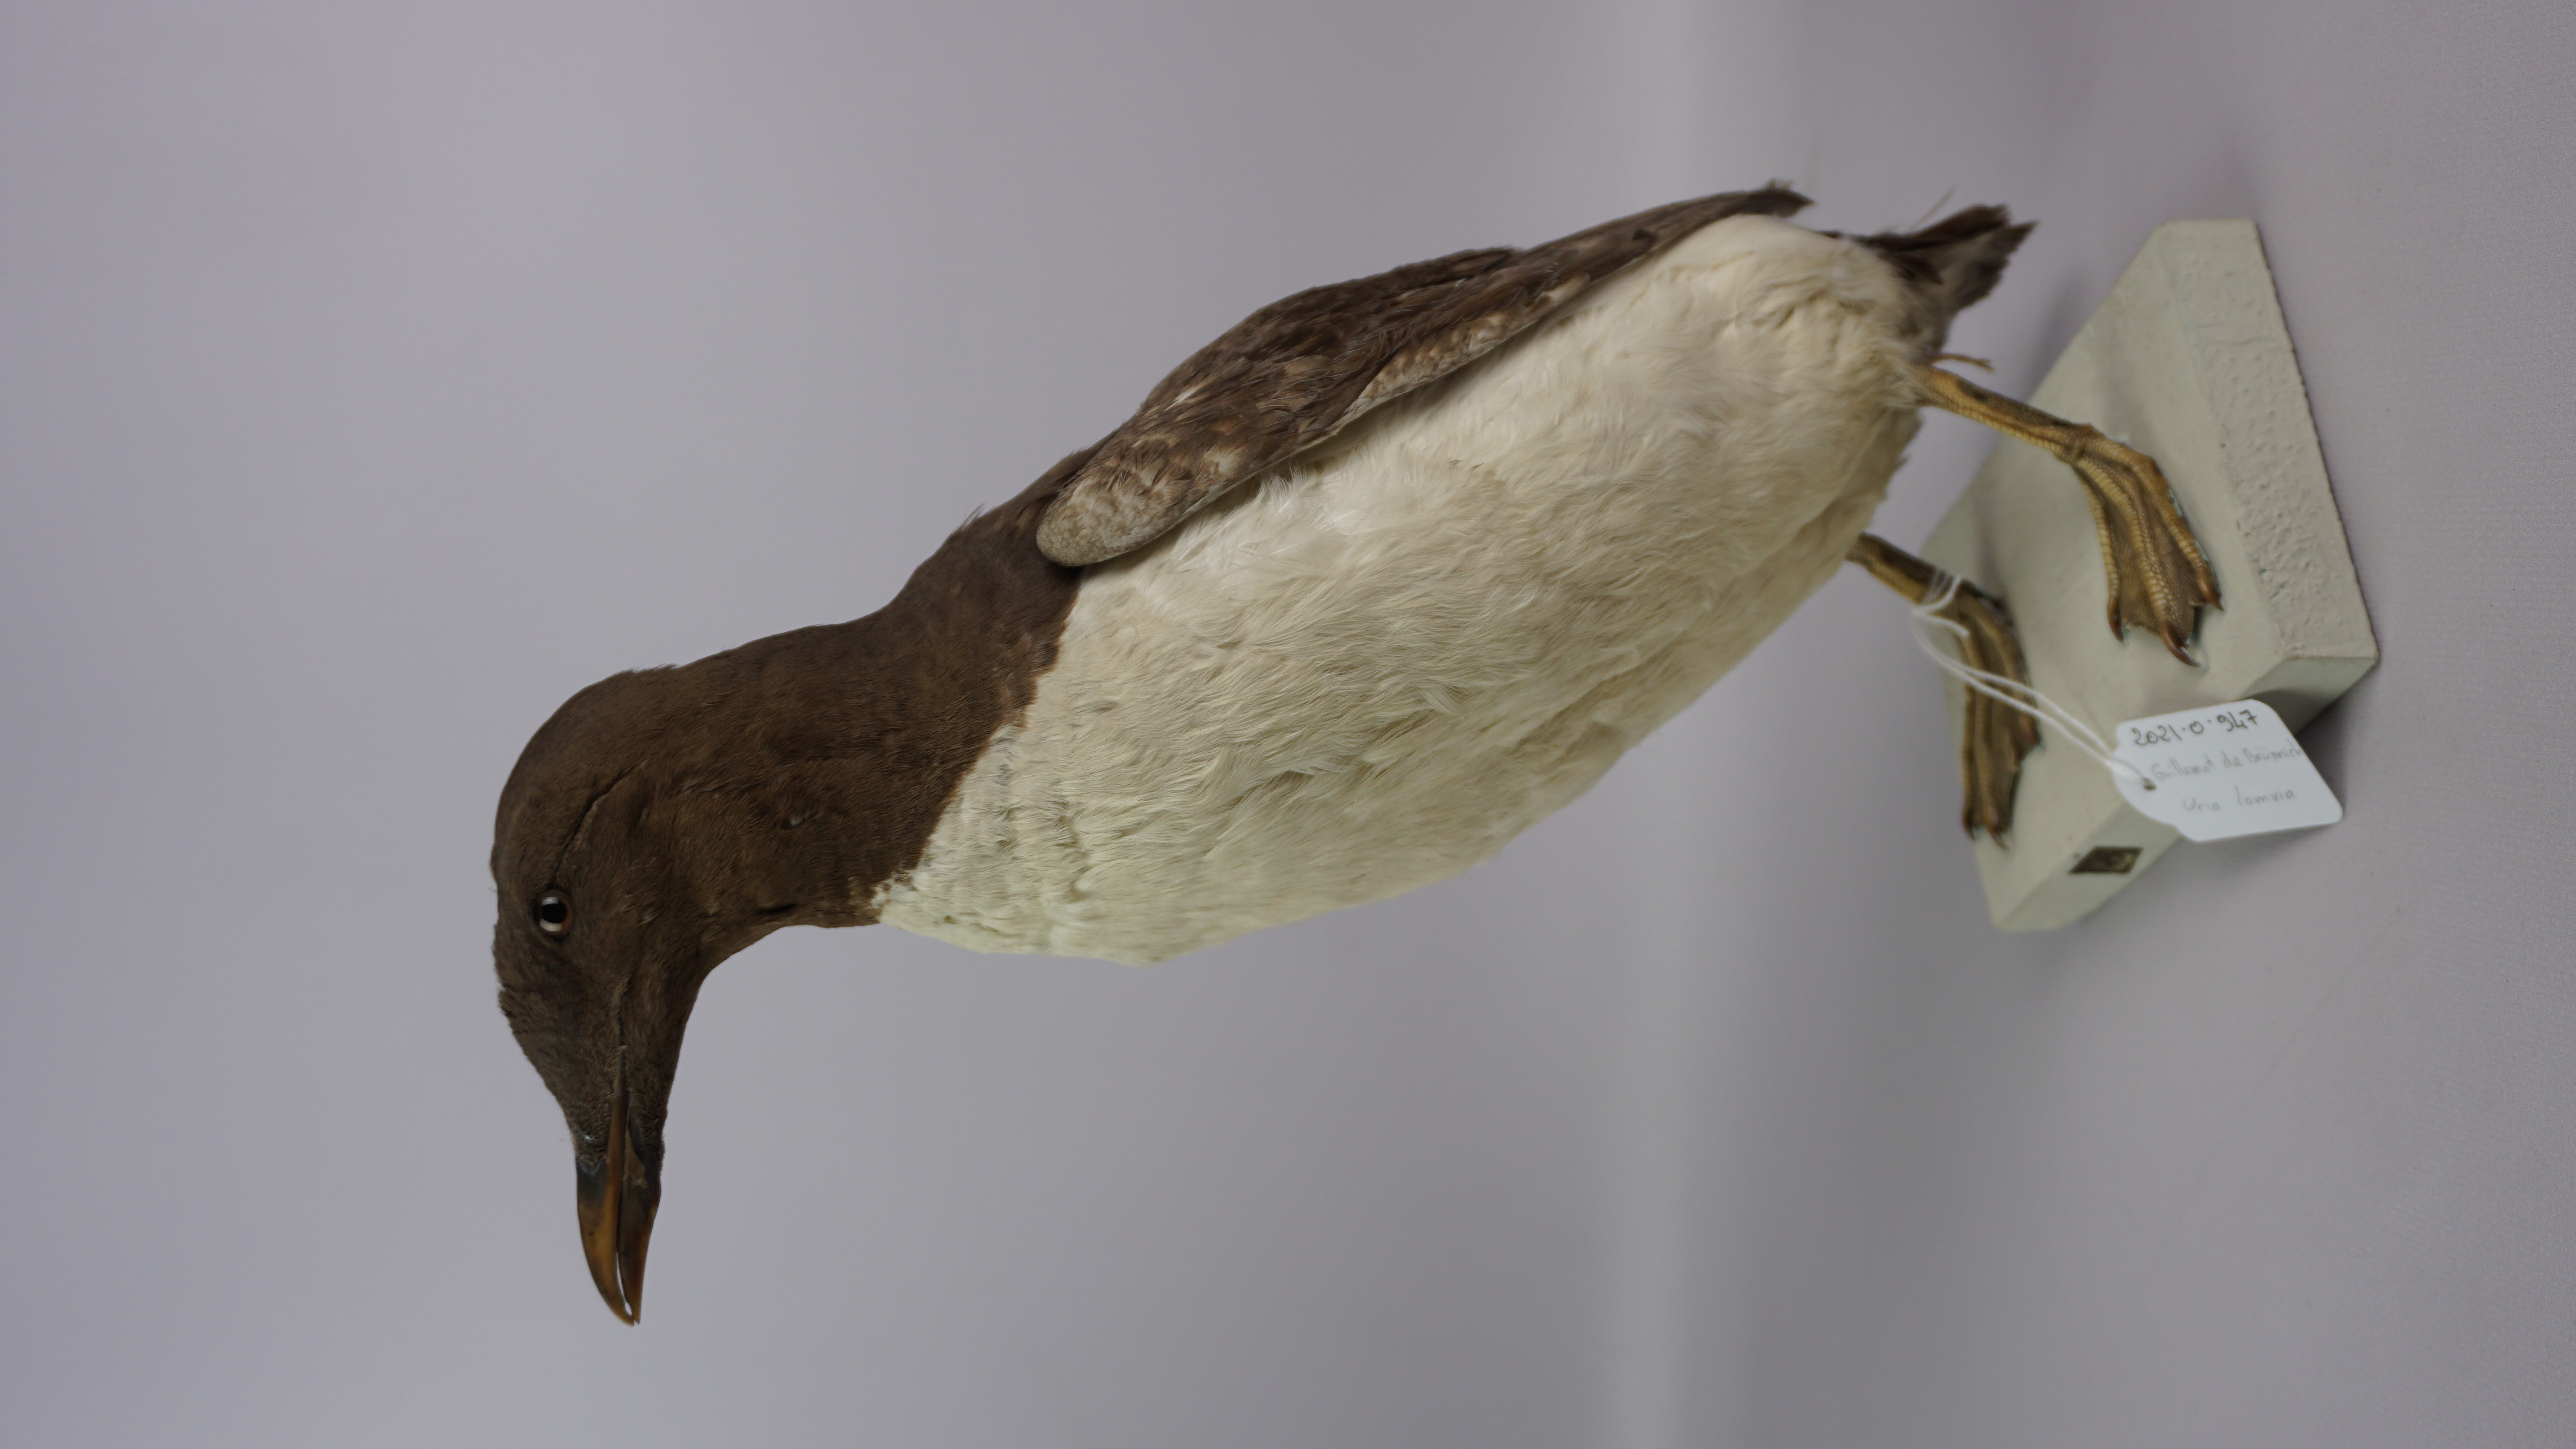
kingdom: Animalia
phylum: Chordata
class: Aves
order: Charadriiformes
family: Alcidae
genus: Uria
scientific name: Uria lomvia
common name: Thick-billed murre
